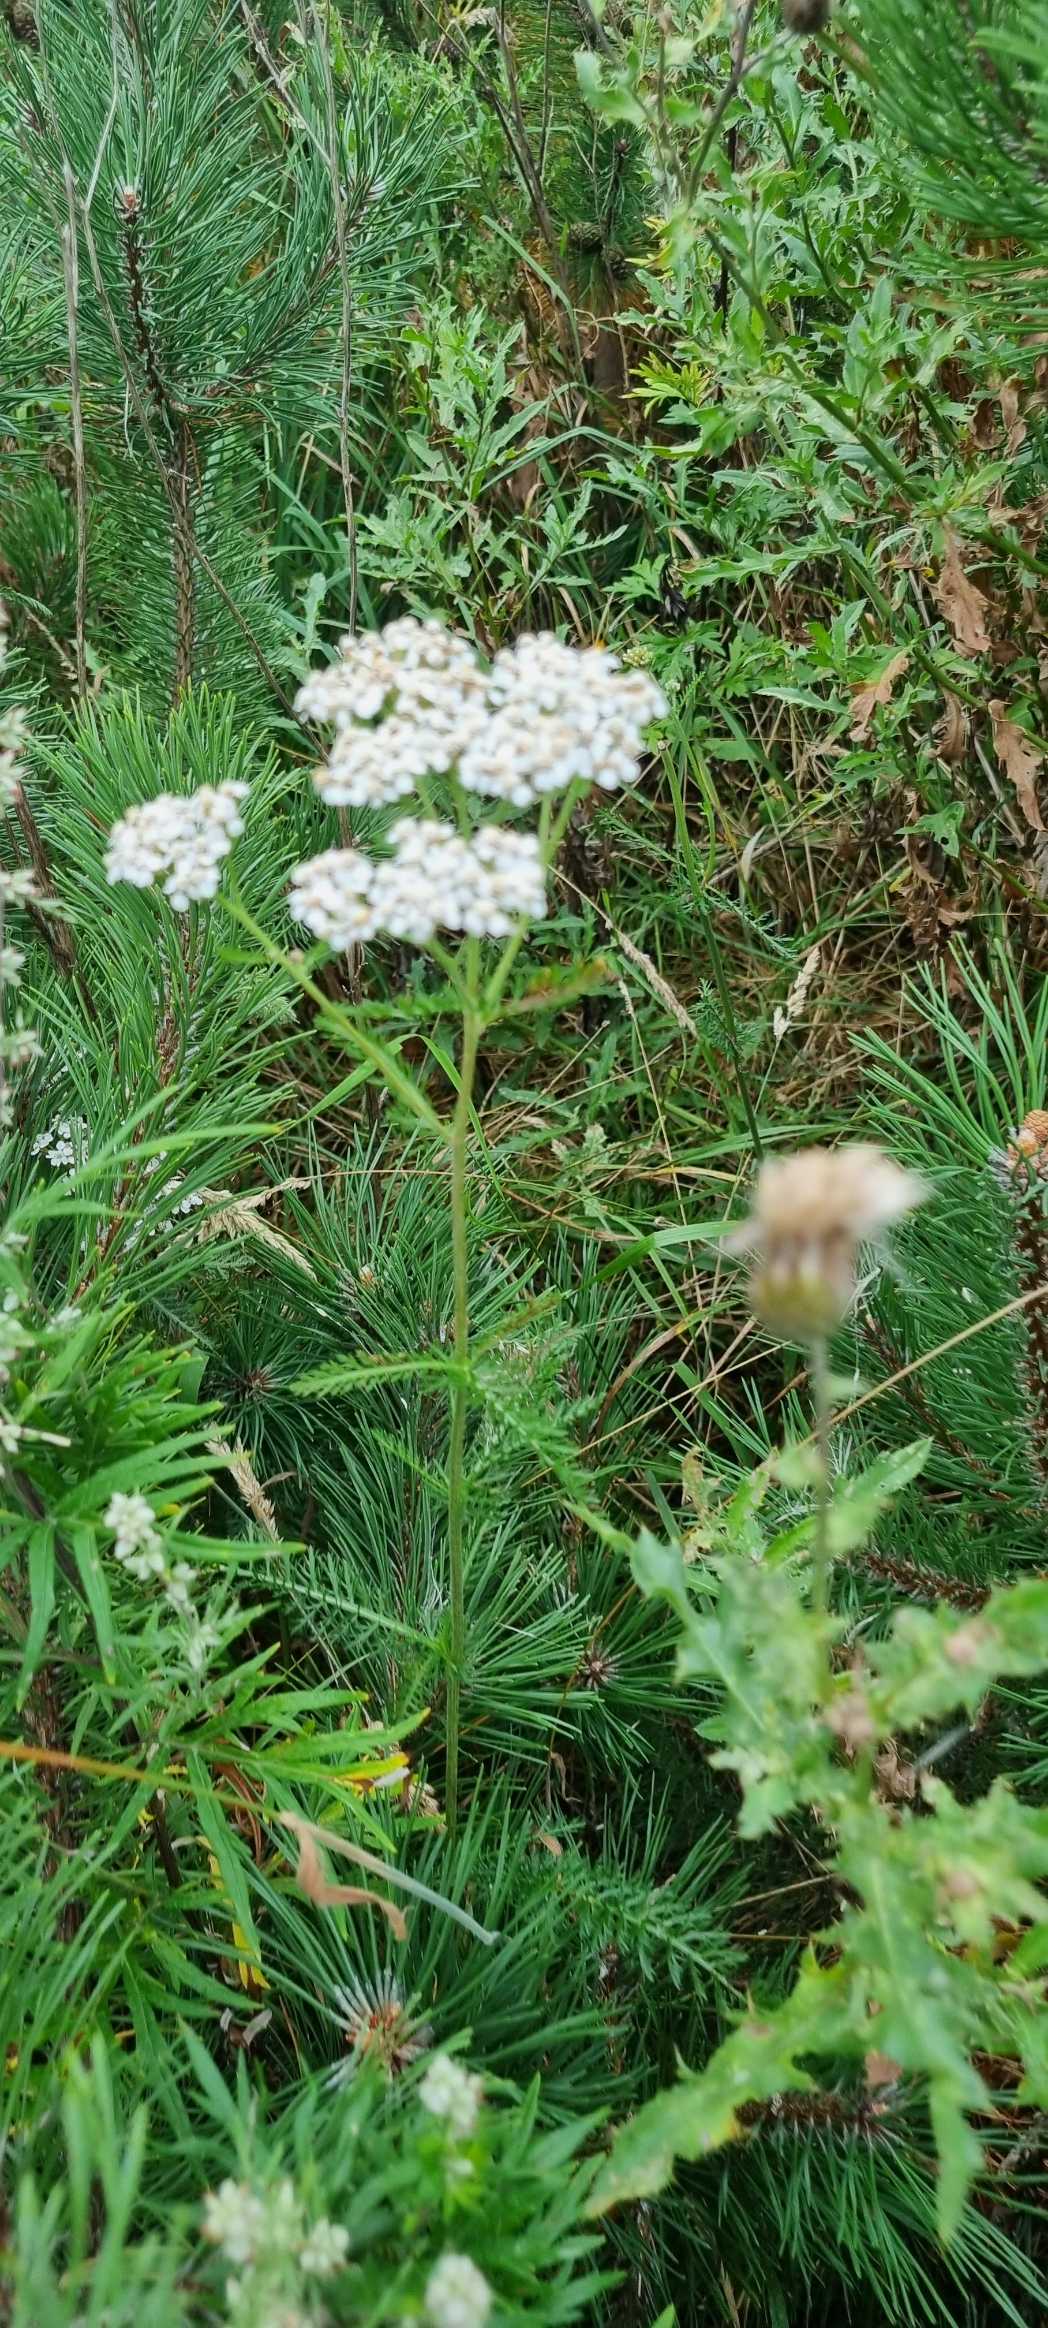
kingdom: Plantae
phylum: Tracheophyta
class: Magnoliopsida
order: Asterales
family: Asteraceae
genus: Achillea
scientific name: Achillea millefolium
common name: Almindelig røllike
